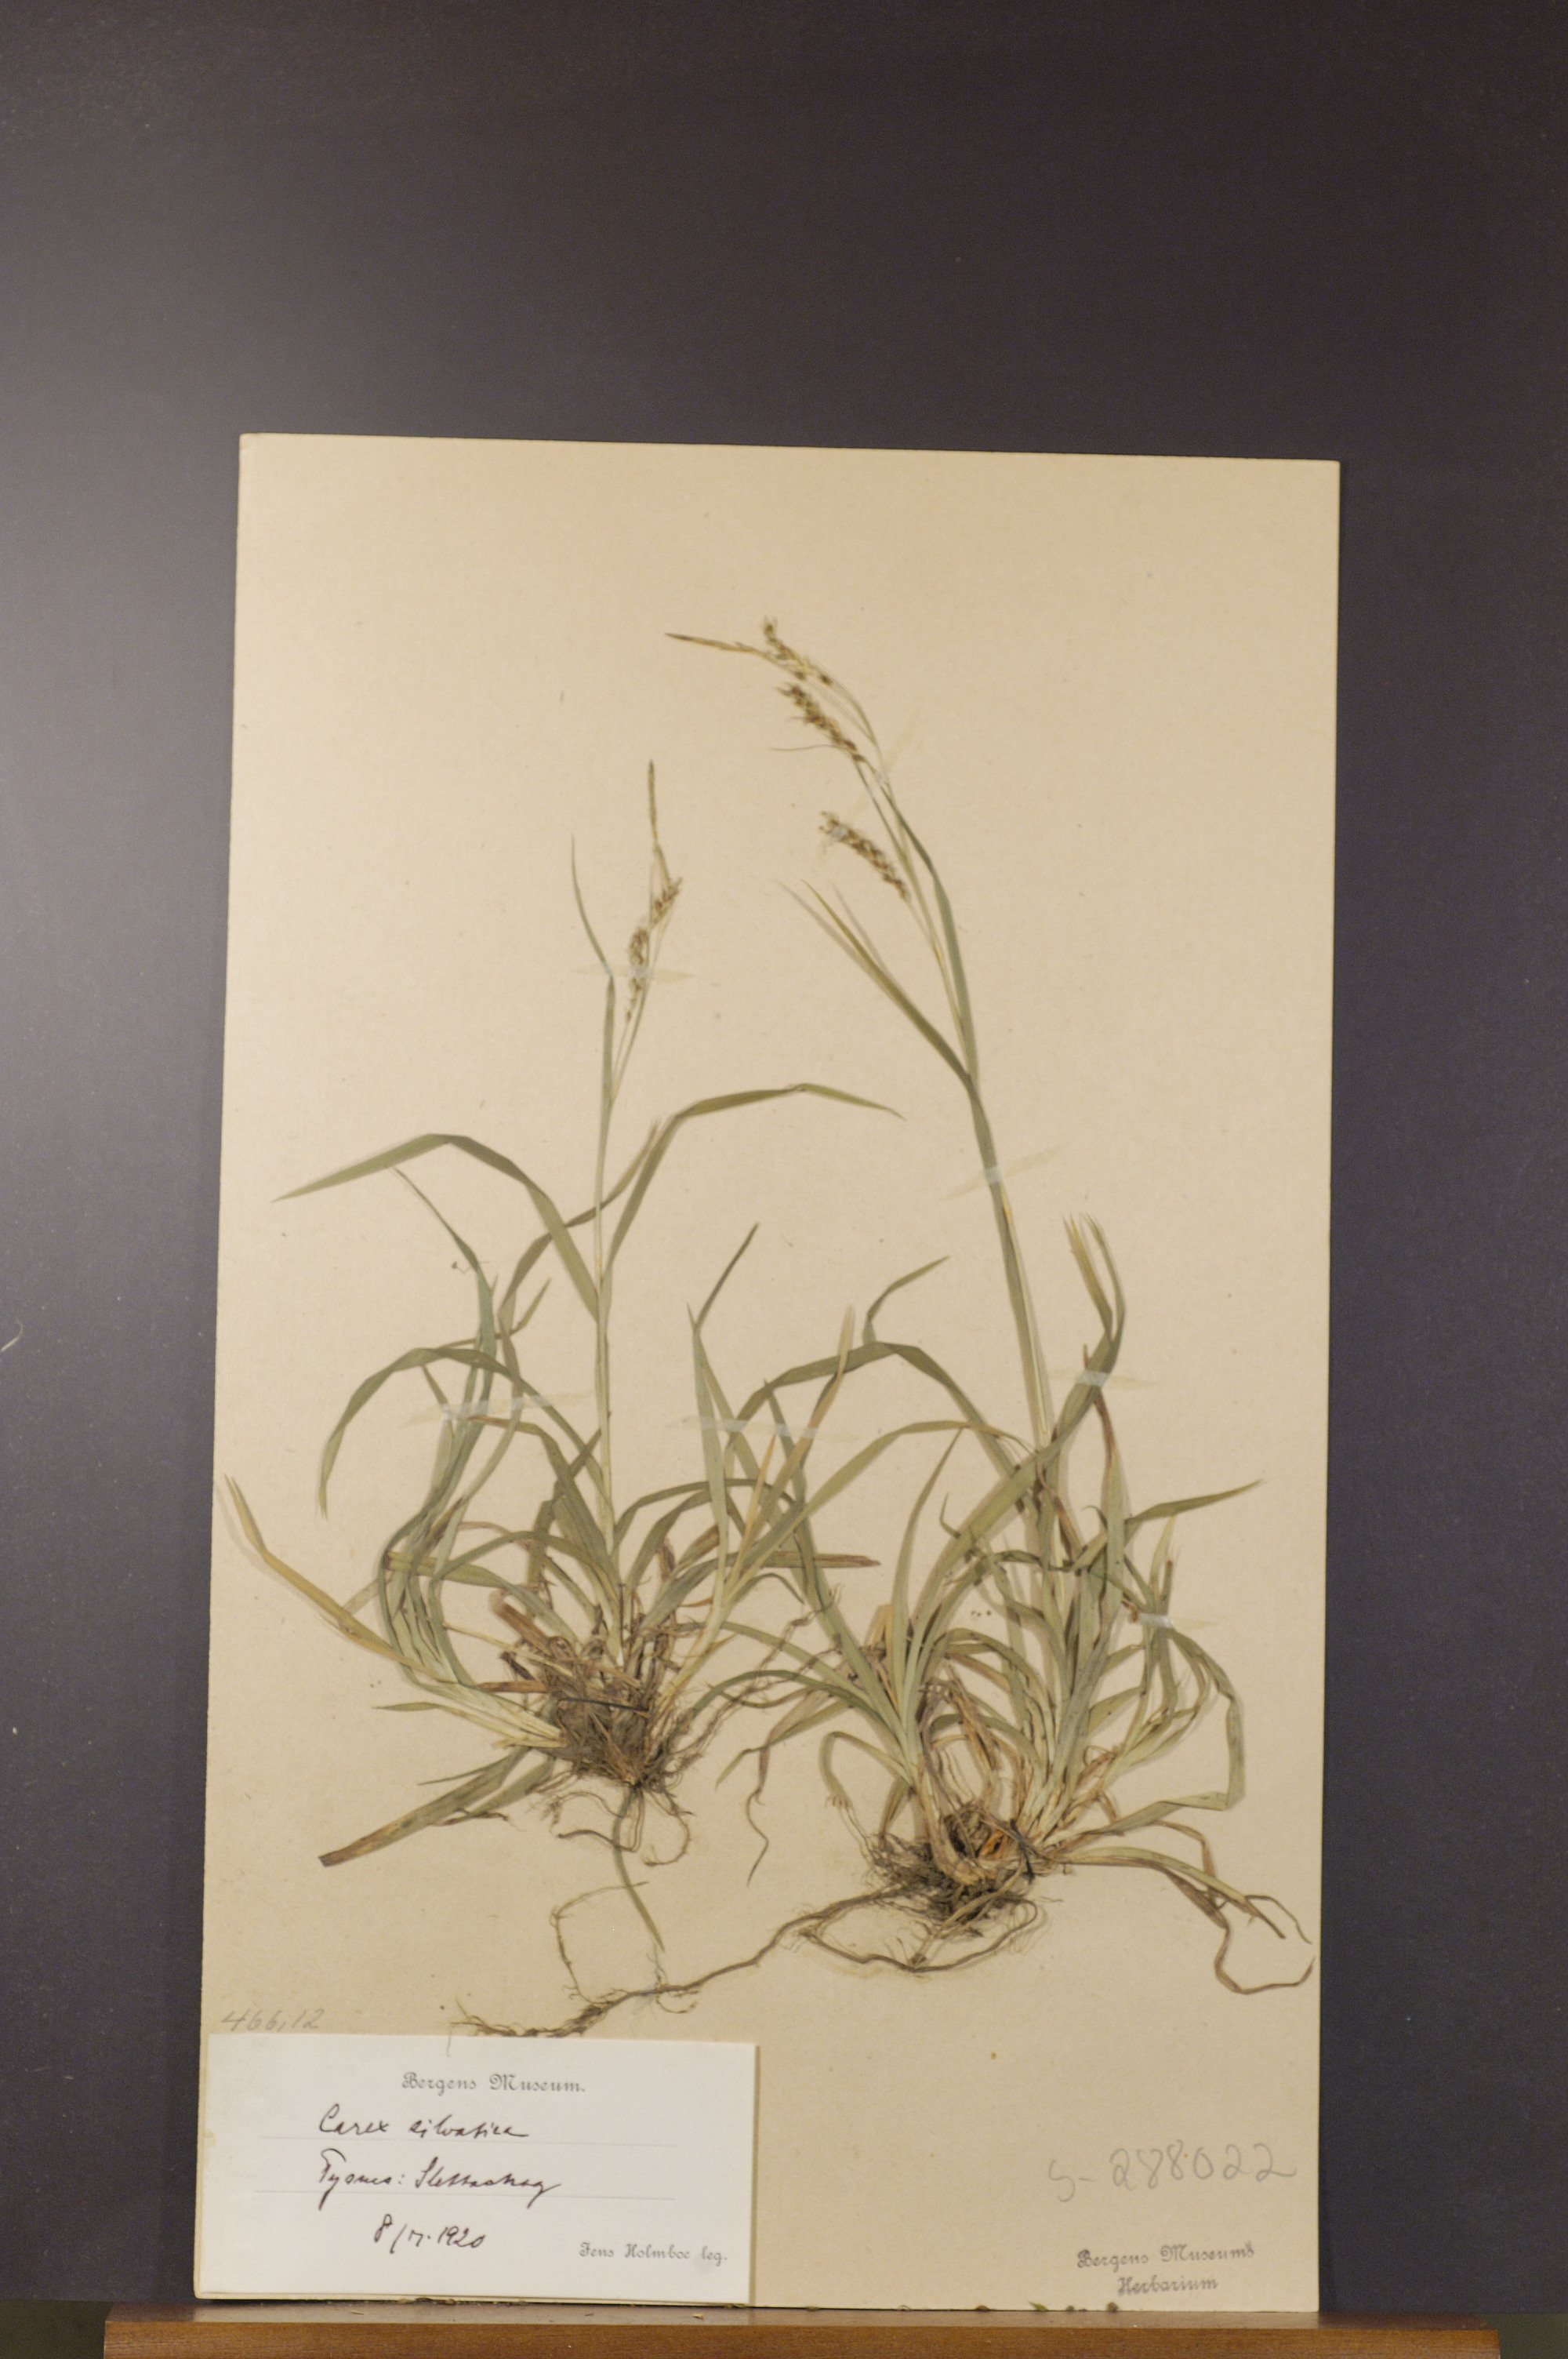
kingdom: Plantae
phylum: Tracheophyta
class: Liliopsida
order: Poales
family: Cyperaceae
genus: Carex
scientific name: Carex sylvatica
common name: Wood-sedge
